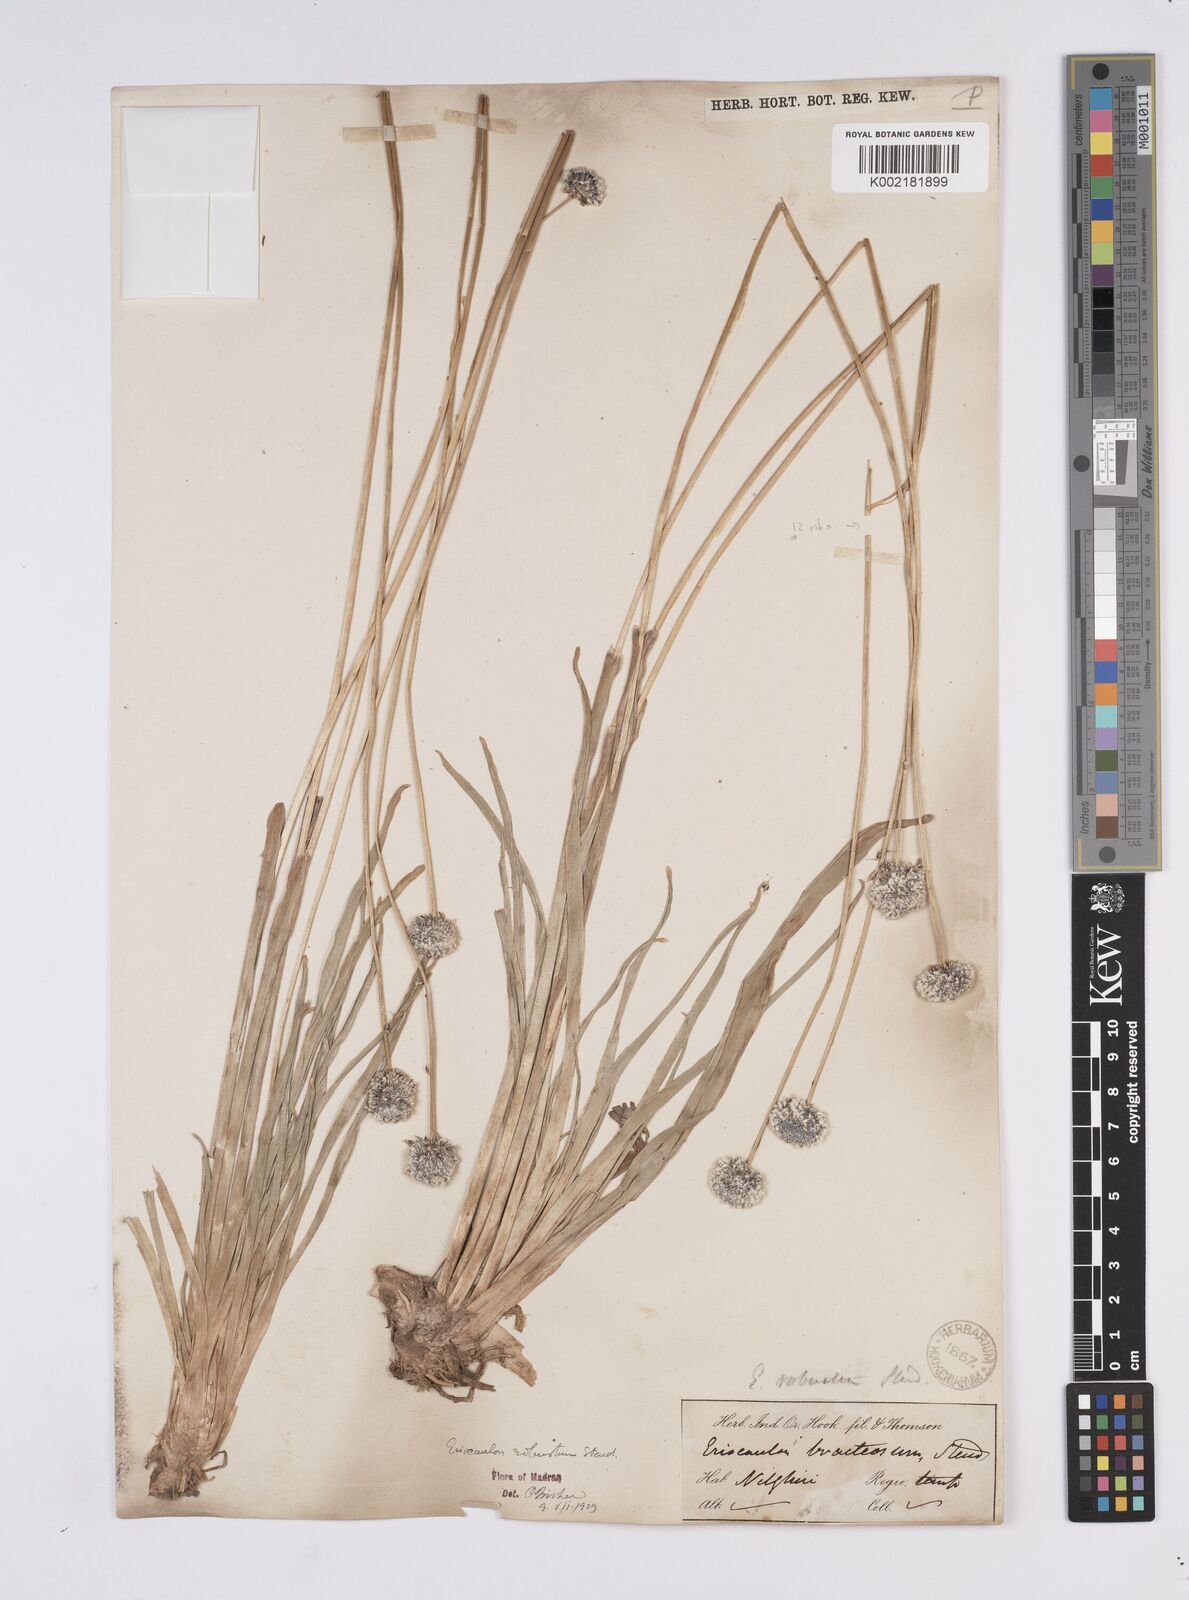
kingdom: Plantae
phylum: Tracheophyta
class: Liliopsida
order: Poales
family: Eriocaulaceae
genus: Eriocaulon
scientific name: Eriocaulon robustum
